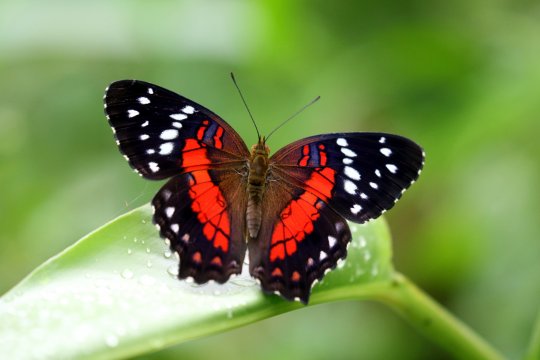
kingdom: Animalia
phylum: Arthropoda
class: Insecta
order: Lepidoptera
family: Nymphalidae
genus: Anartia
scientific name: Anartia amathea
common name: Red Peacock
